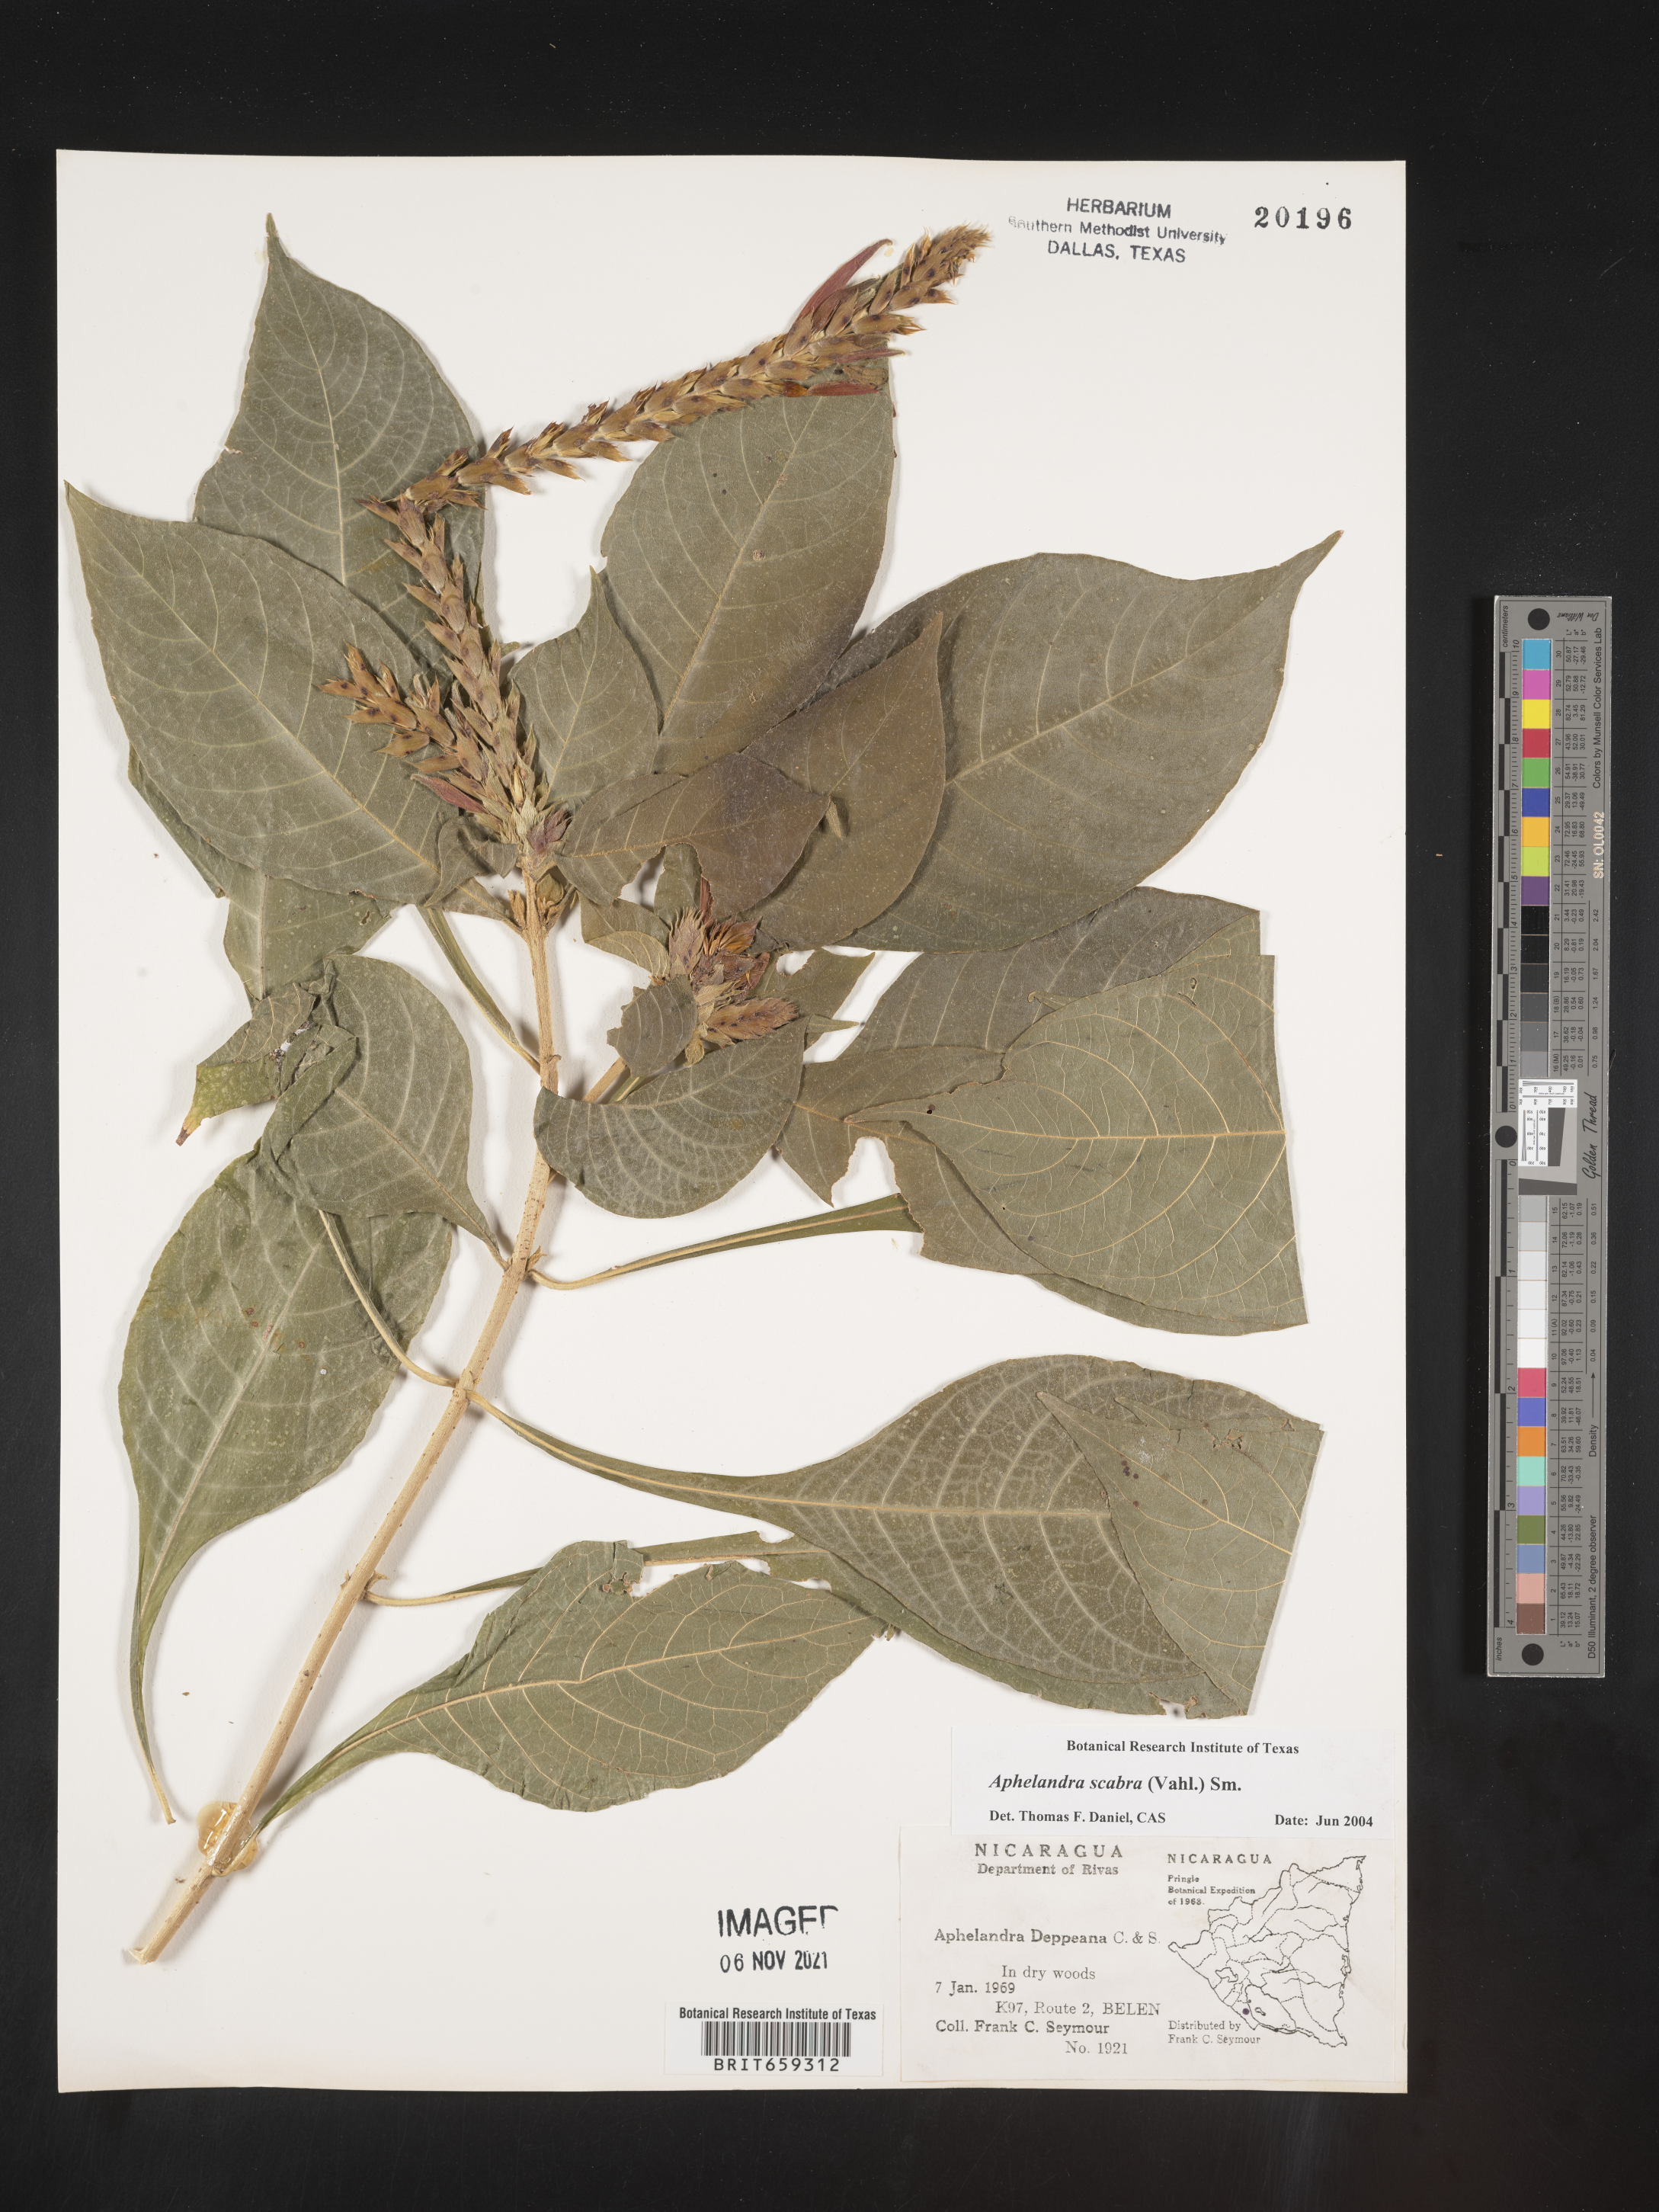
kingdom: Plantae
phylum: Tracheophyta
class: Magnoliopsida
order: Lamiales
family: Acanthaceae
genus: Aphelandra
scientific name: Aphelandra
